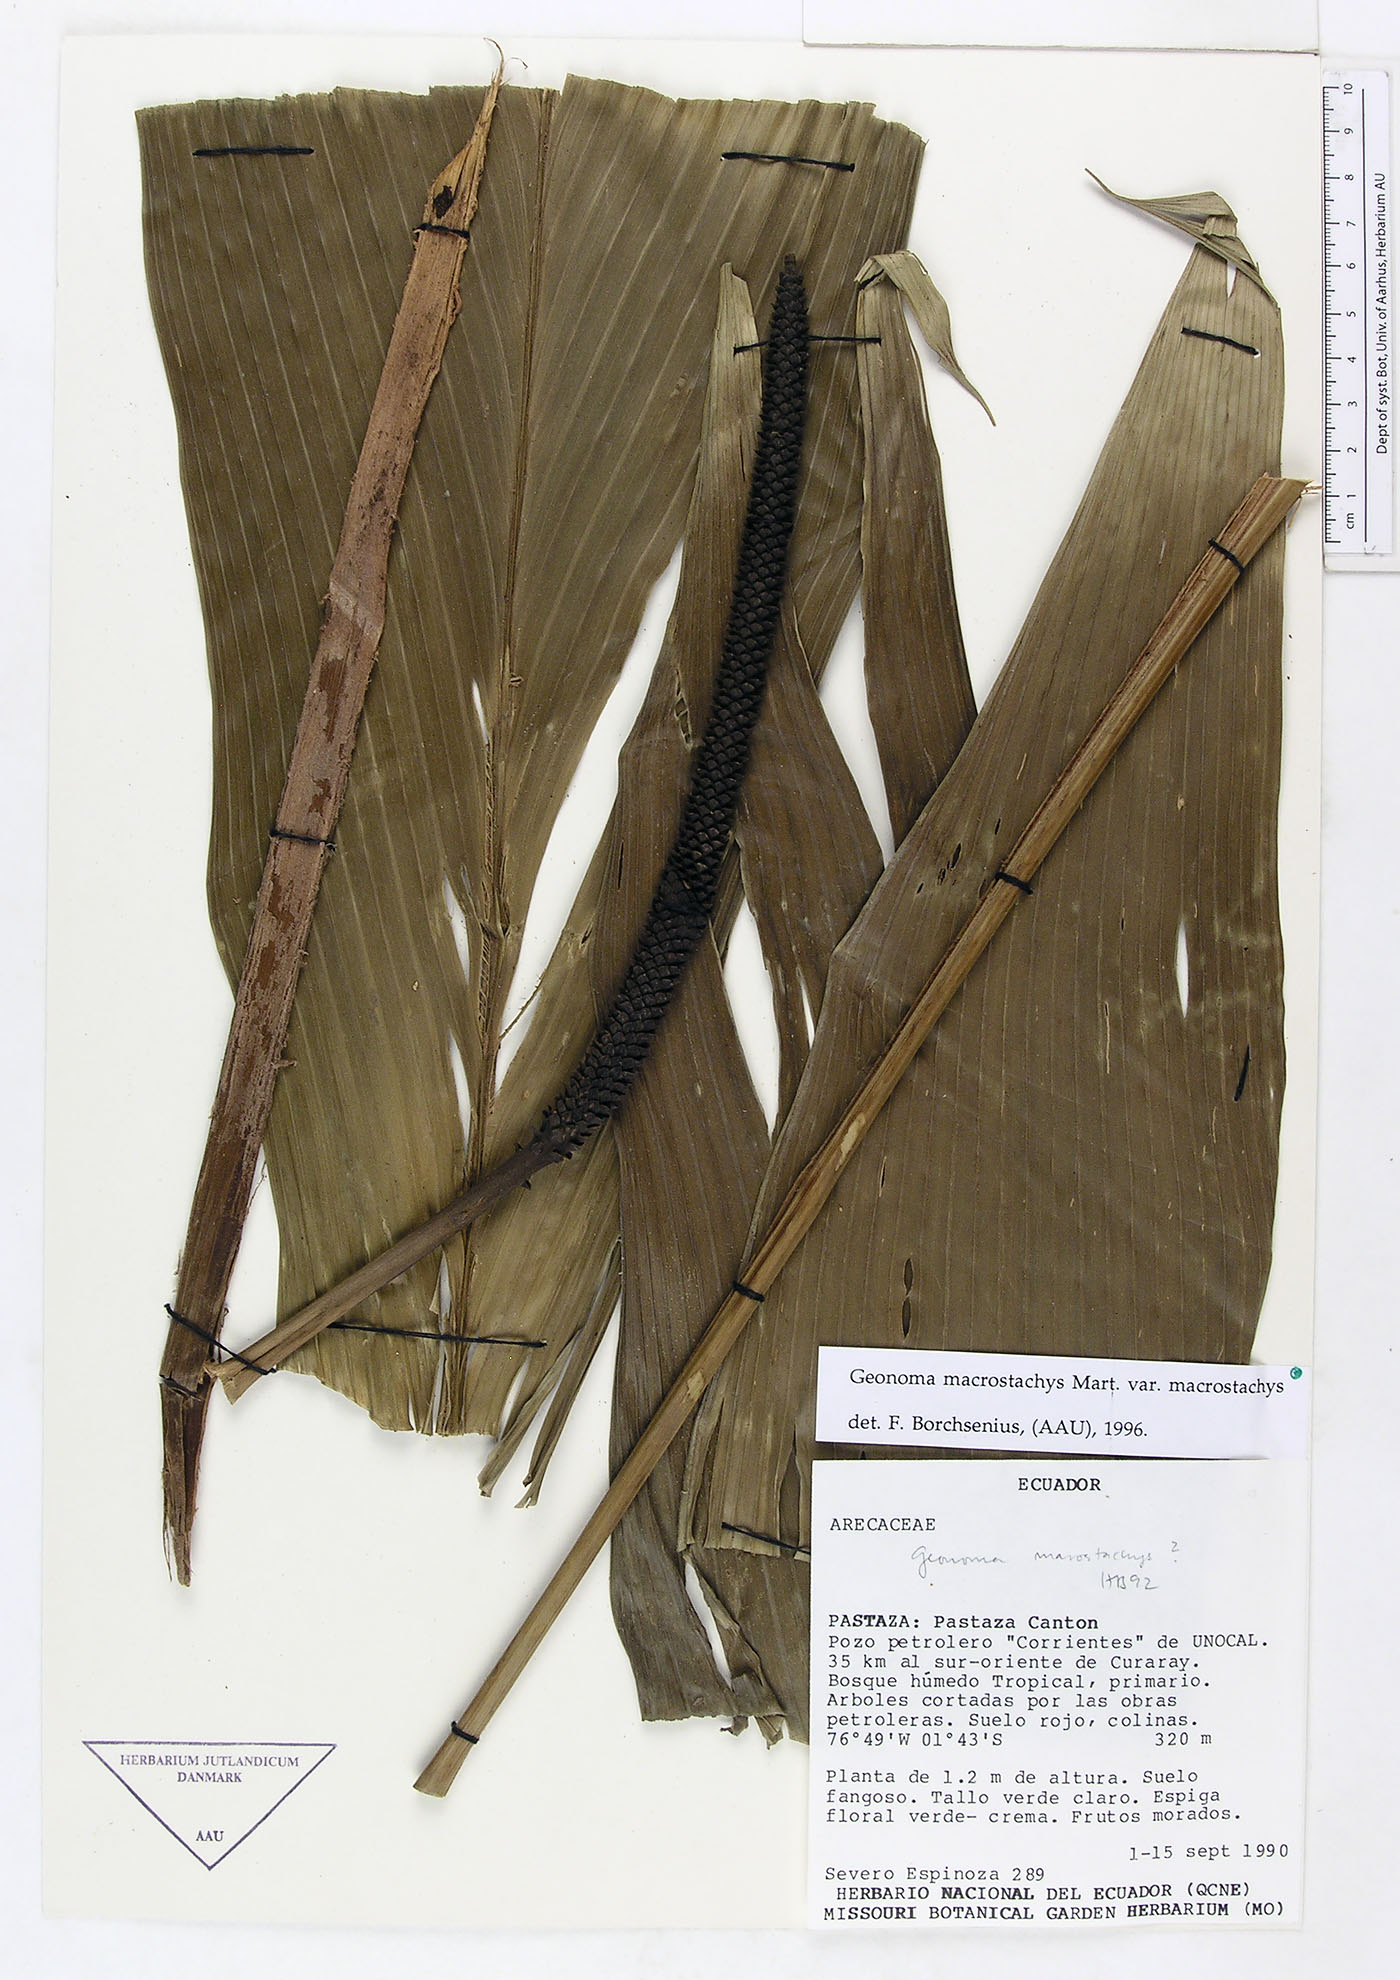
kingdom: Plantae
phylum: Tracheophyta
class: Liliopsida
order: Arecales
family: Arecaceae
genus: Geonoma
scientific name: Geonoma macrostachys
